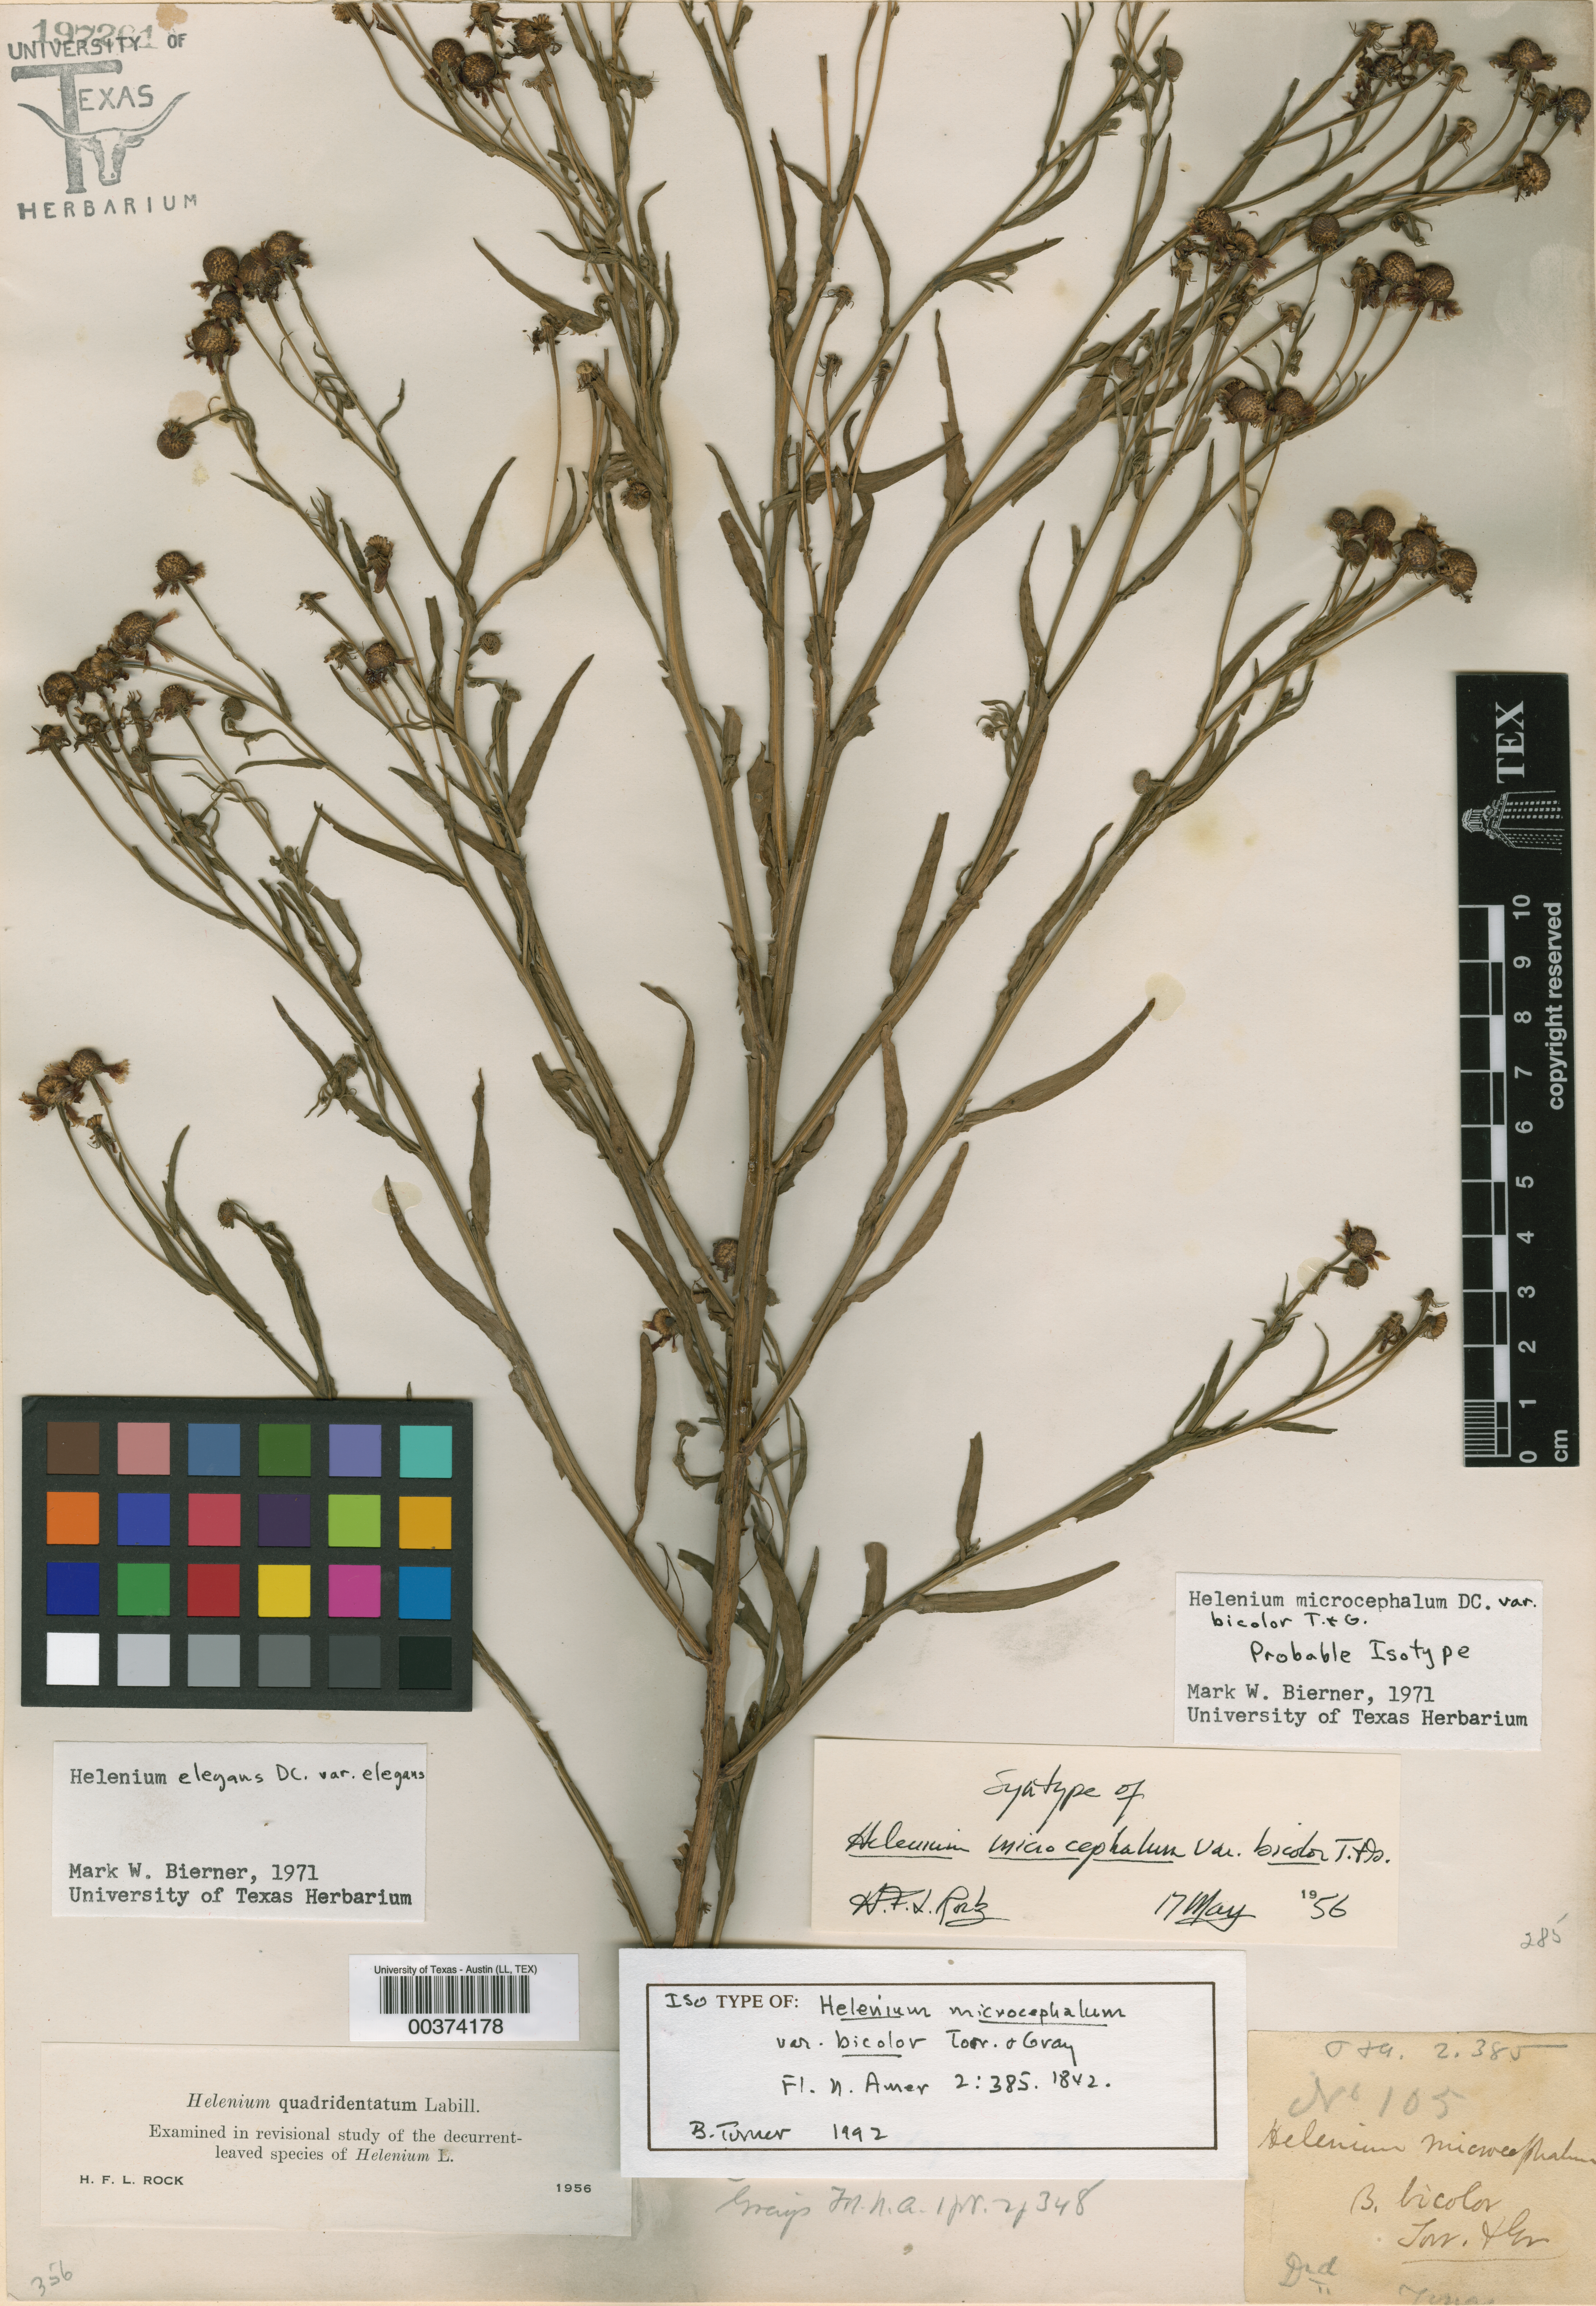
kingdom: Plantae
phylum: Tracheophyta
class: Magnoliopsida
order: Asterales
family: Asteraceae
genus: Helenium
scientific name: Helenium elegans
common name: Pretty sneezeweed
